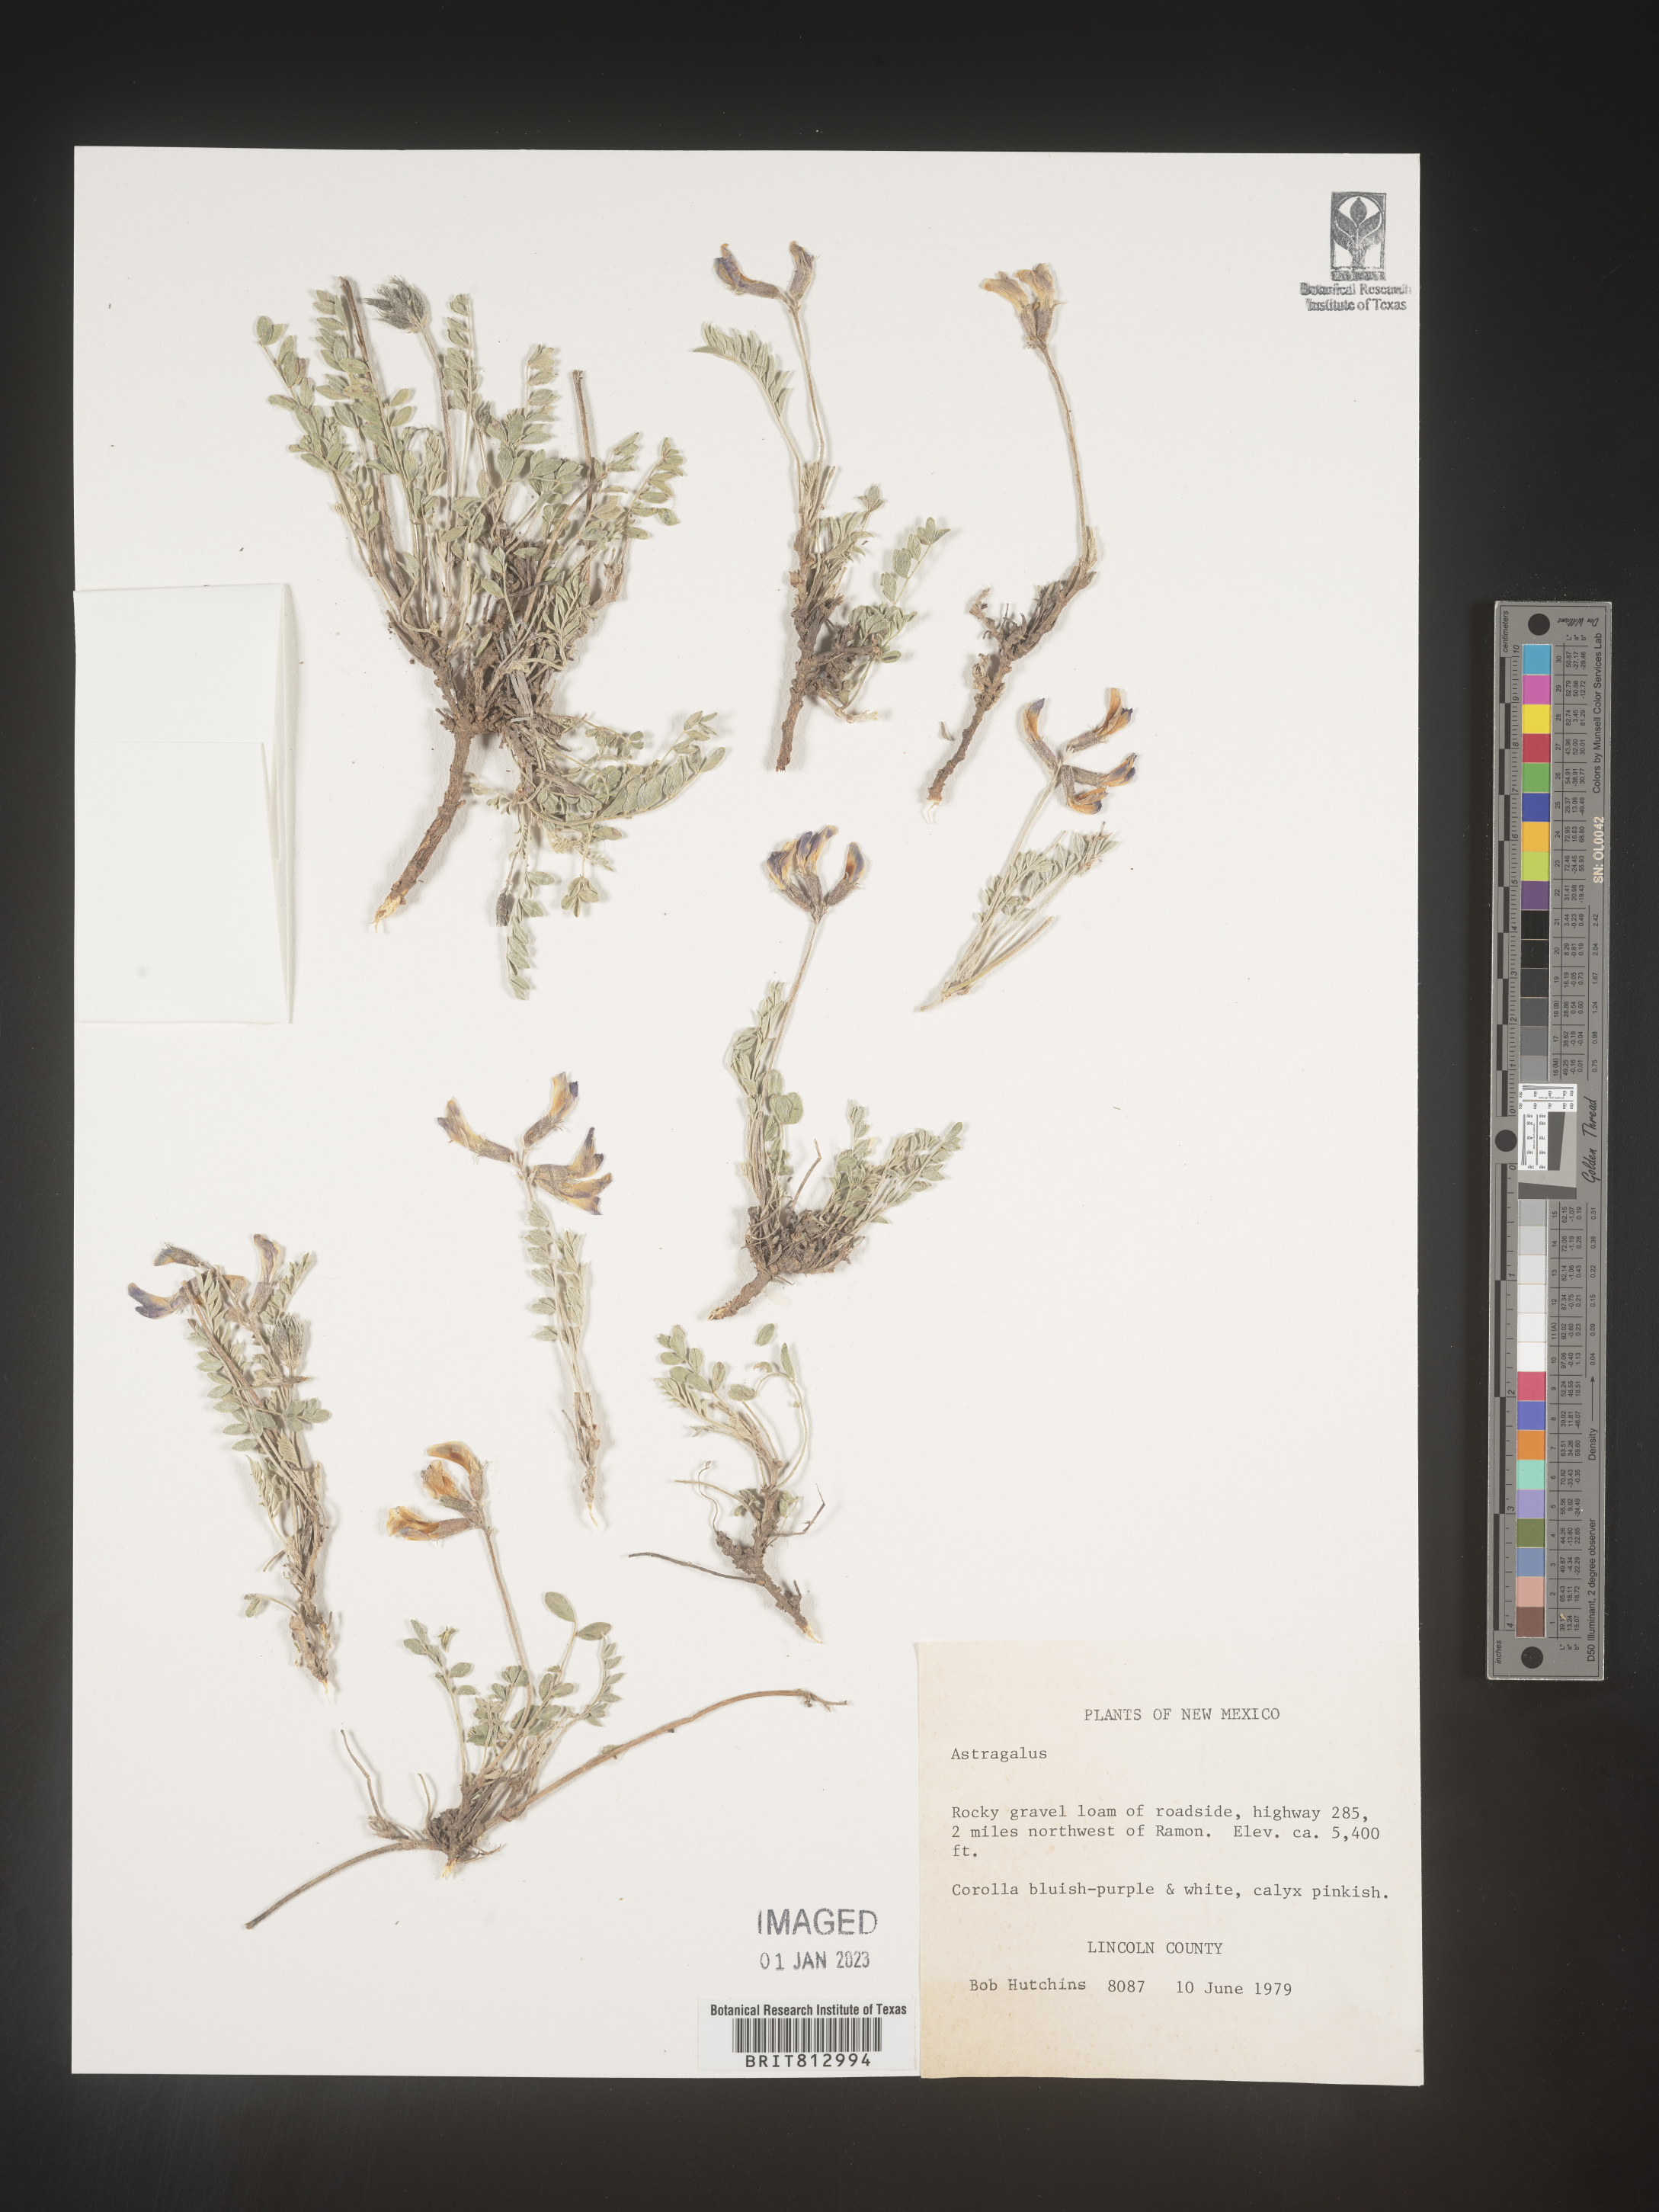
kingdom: Plantae
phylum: Tracheophyta
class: Magnoliopsida
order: Fabales
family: Fabaceae
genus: Astragalus
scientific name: Astragalus
